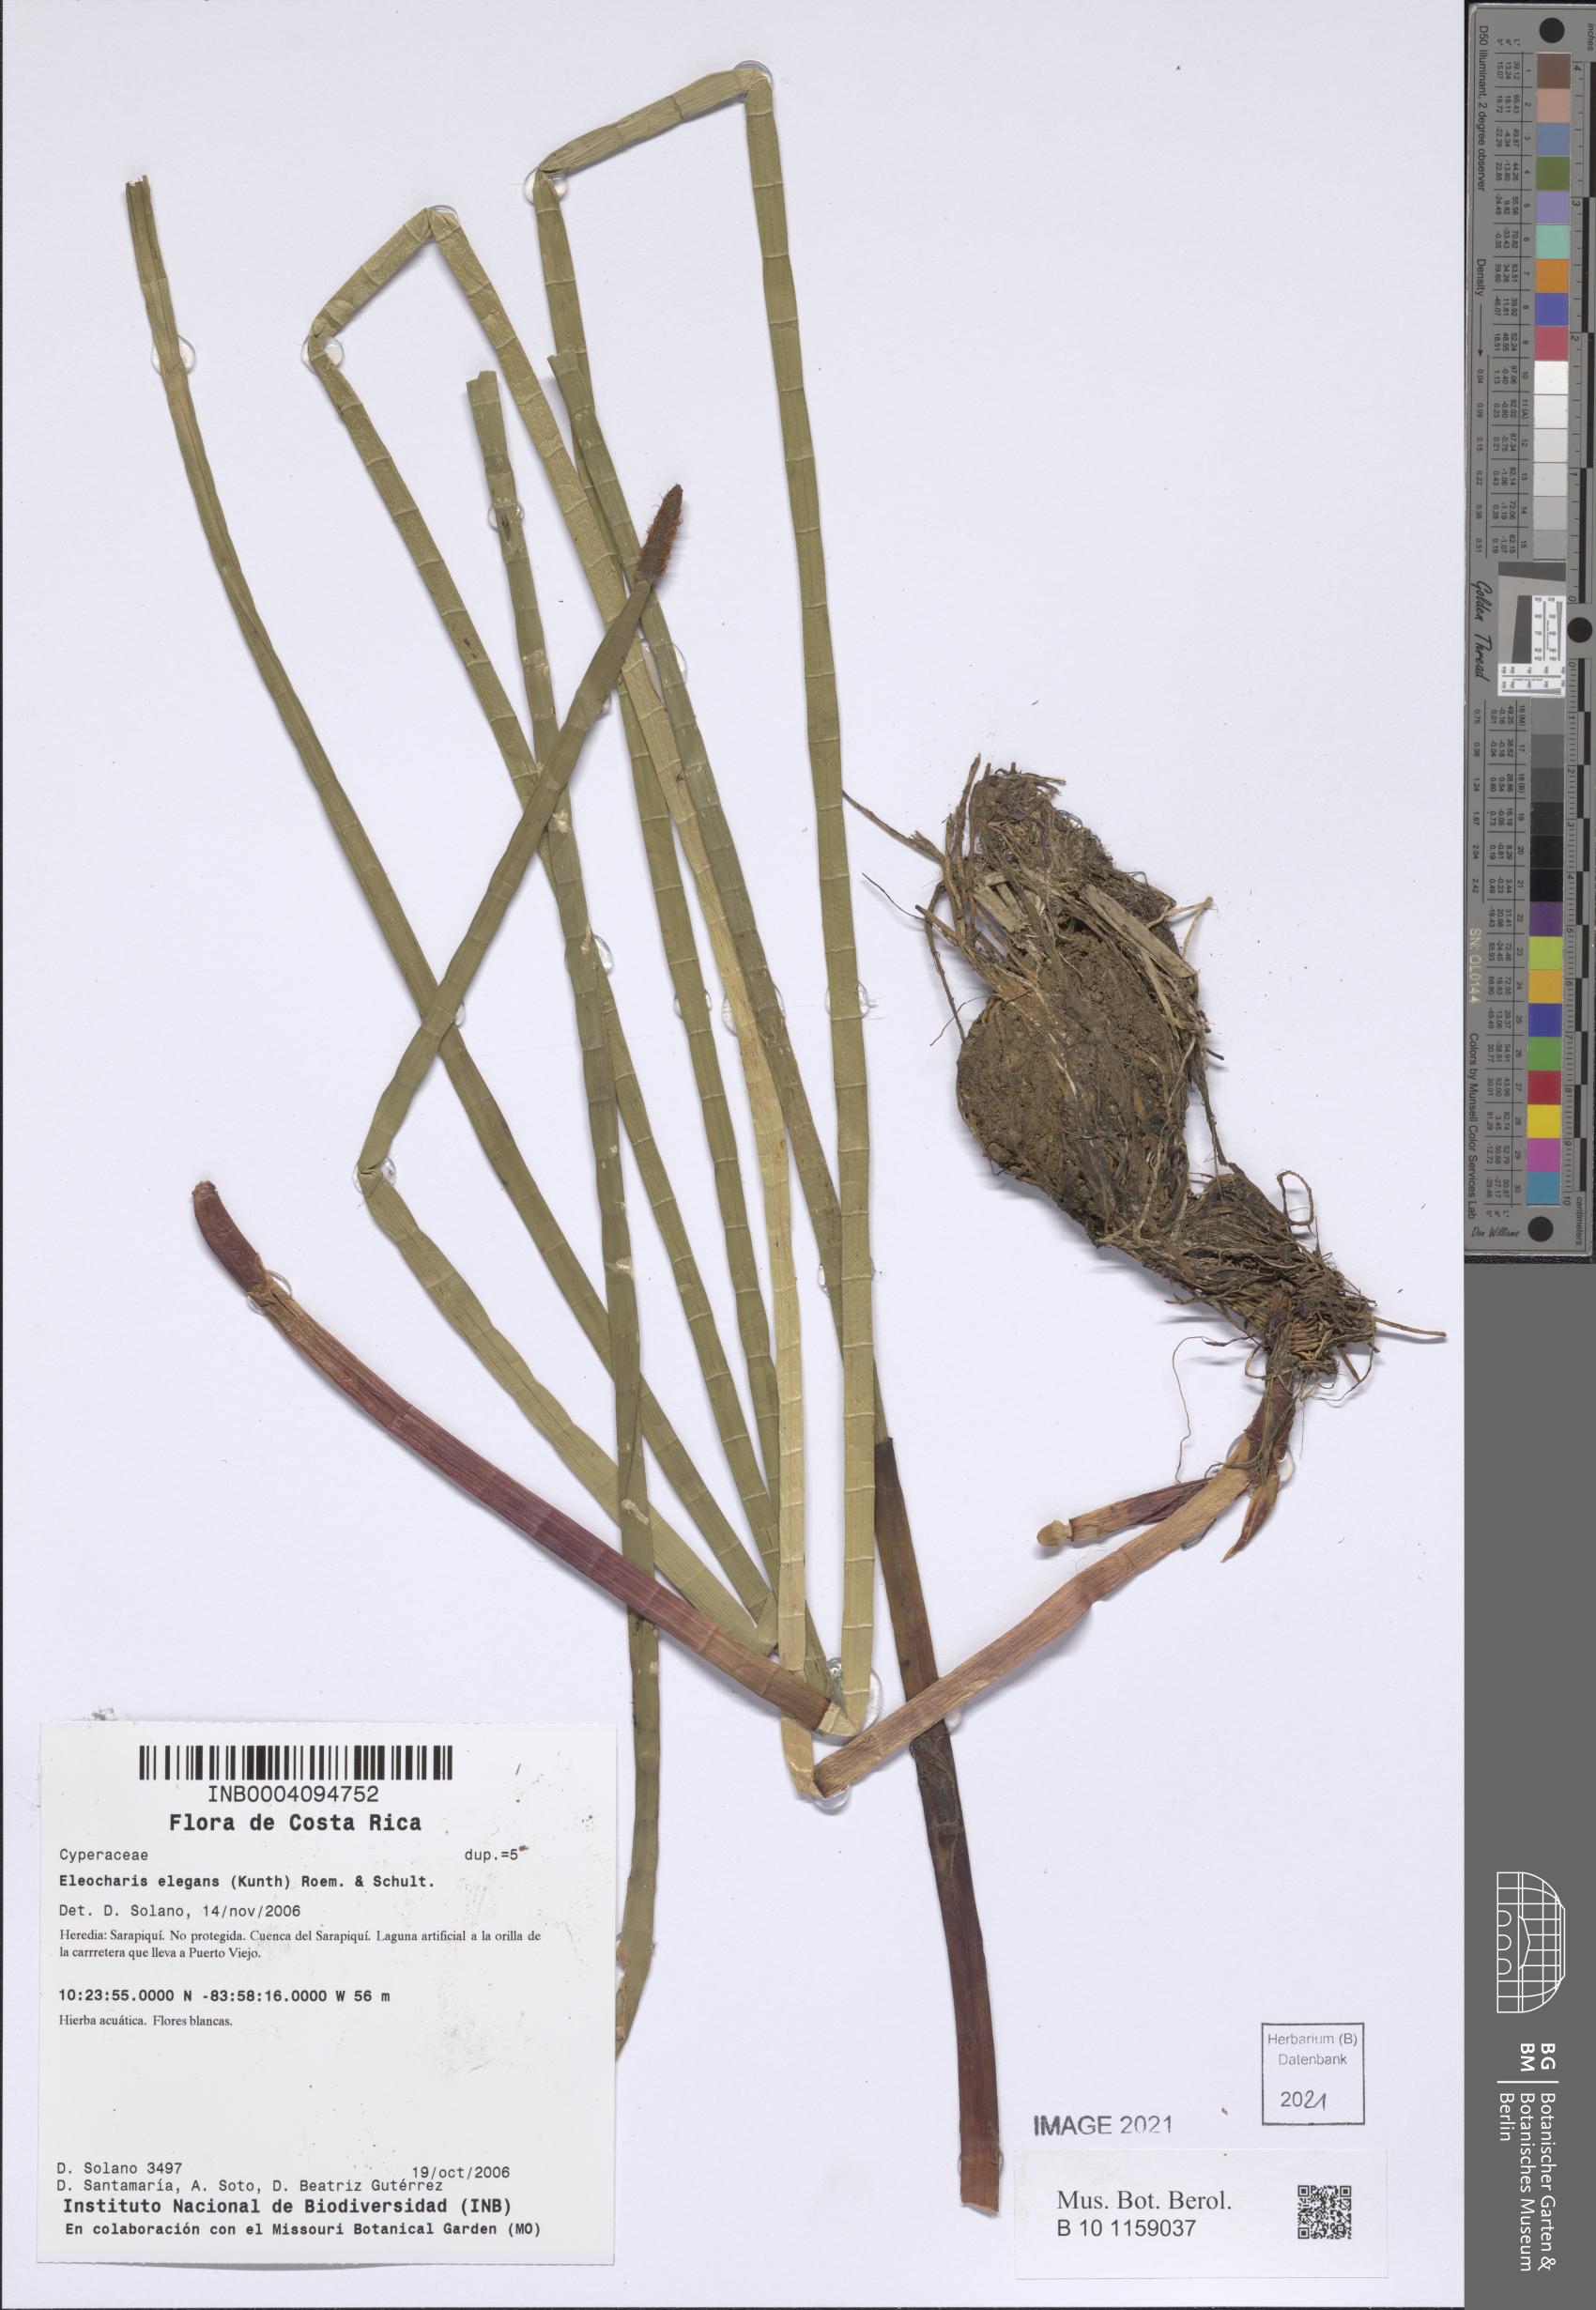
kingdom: Plantae
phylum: Tracheophyta
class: Liliopsida
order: Poales
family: Cyperaceae
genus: Eleocharis
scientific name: Eleocharis elegans
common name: Elegant spike-rush
